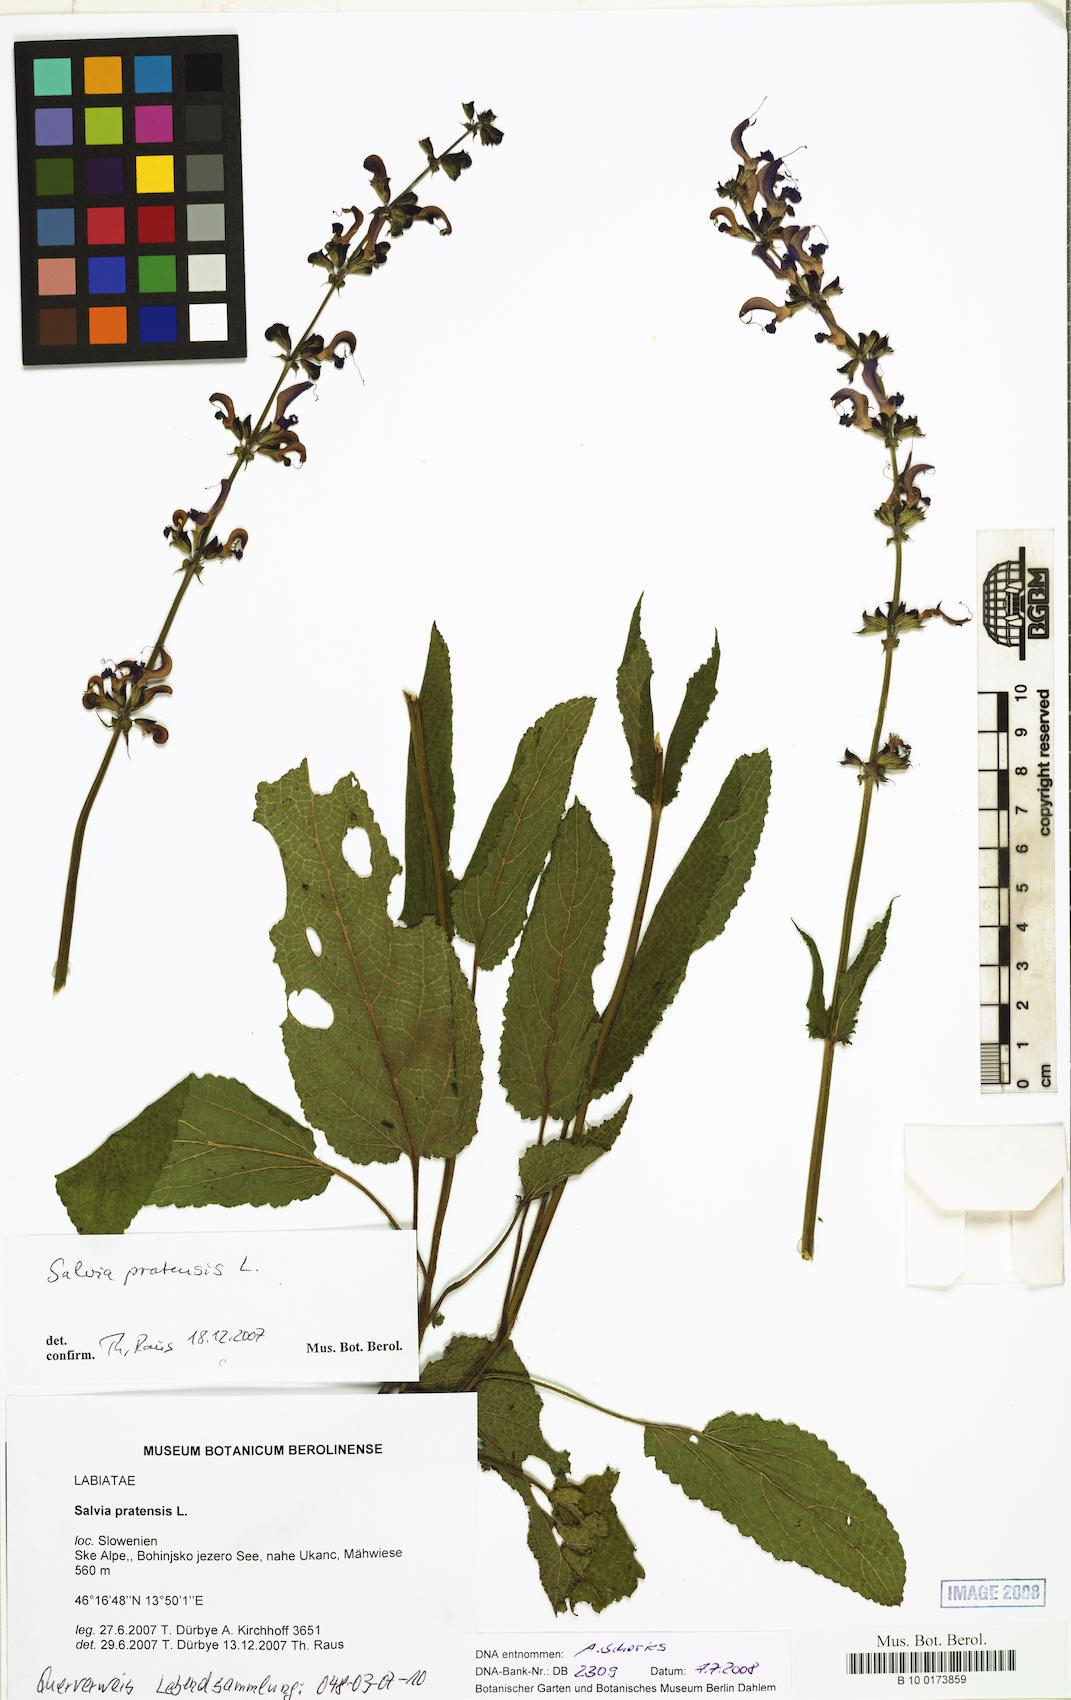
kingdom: Plantae
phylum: Tracheophyta
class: Magnoliopsida
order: Lamiales
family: Lamiaceae
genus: Salvia
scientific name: Salvia pratensis
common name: Meadow sage
